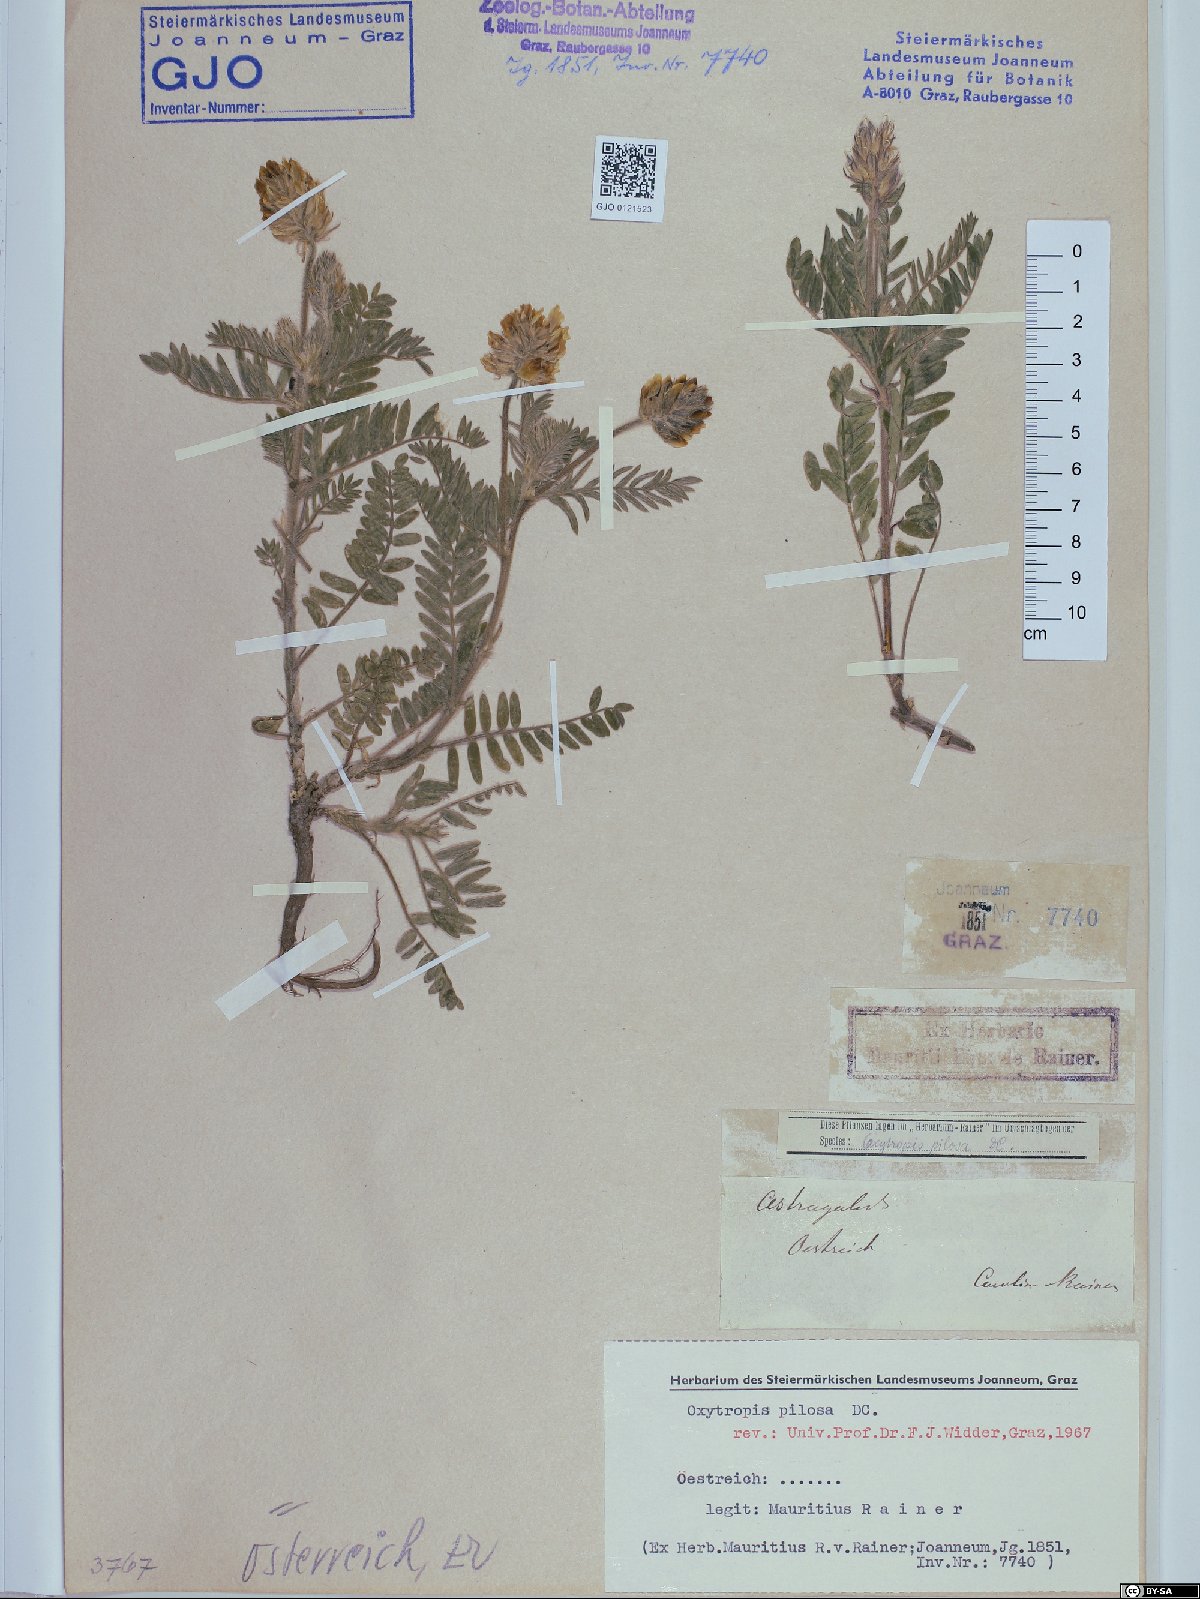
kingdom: Plantae
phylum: Tracheophyta
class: Magnoliopsida
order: Fabales
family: Fabaceae
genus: Oxytropis
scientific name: Oxytropis pilosa
